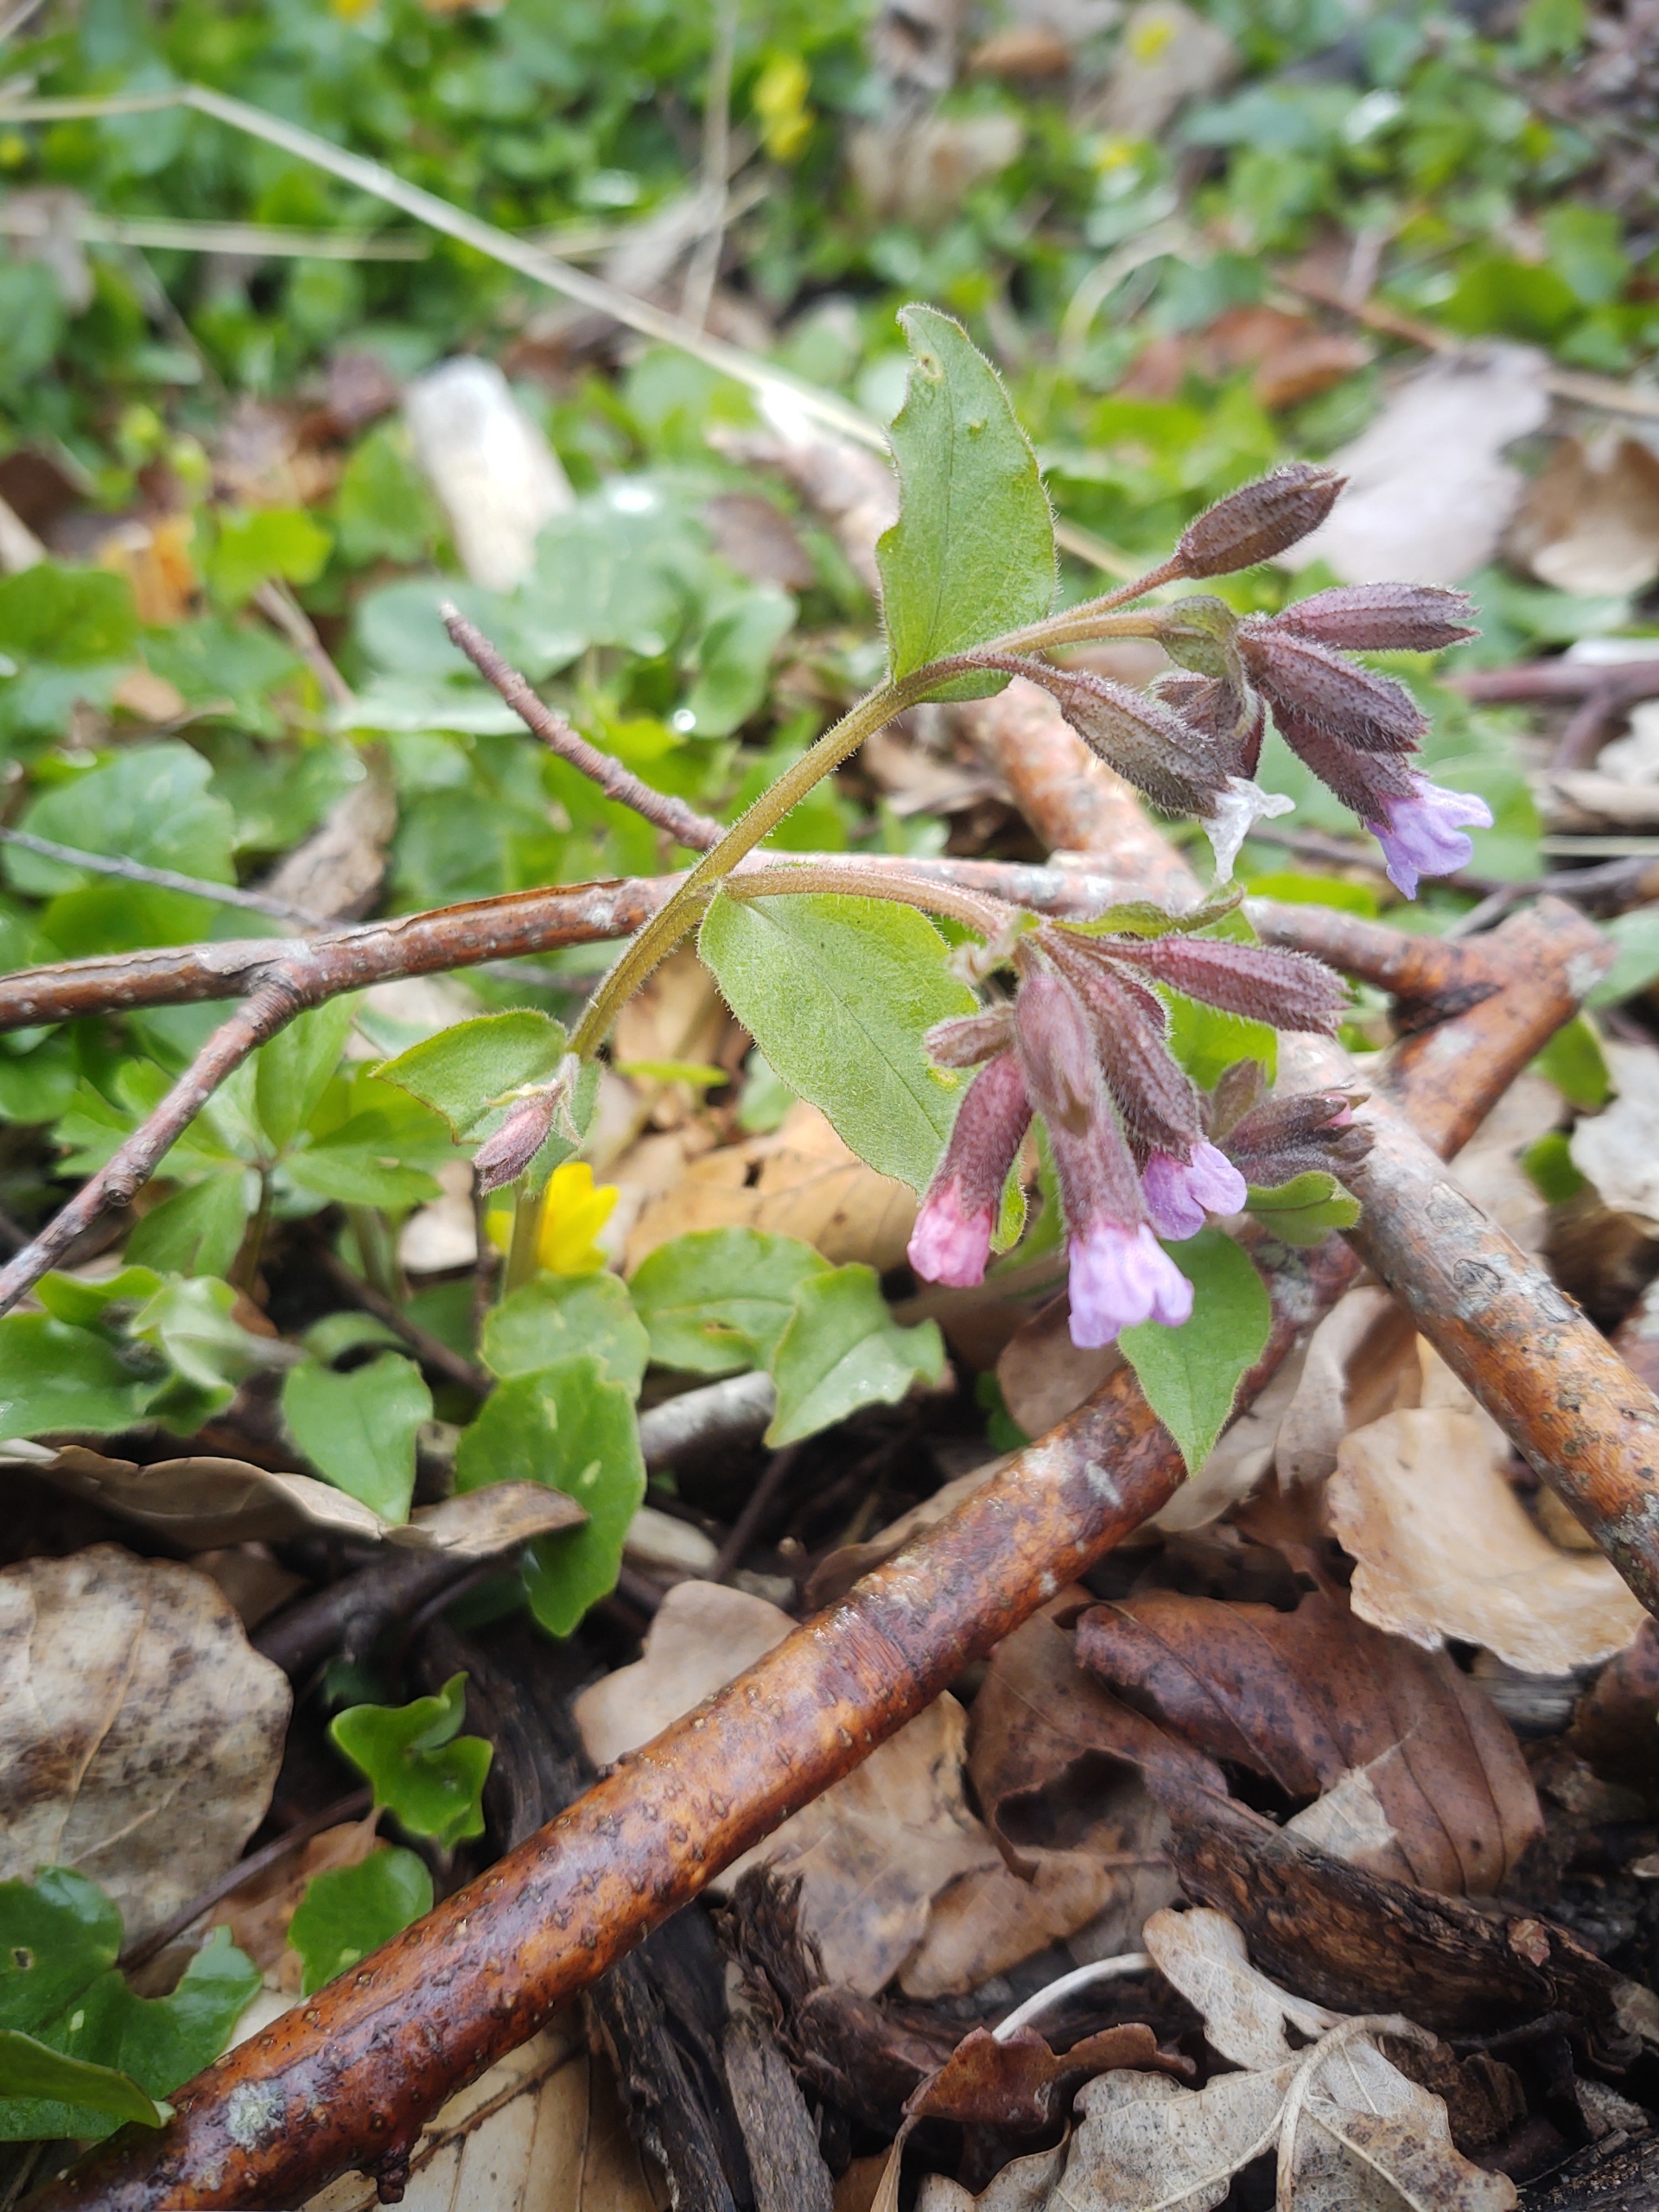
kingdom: Plantae
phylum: Tracheophyta
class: Magnoliopsida
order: Boraginales
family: Boraginaceae
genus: Pulmonaria
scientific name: Pulmonaria obscura
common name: Almindelig lungeurt
